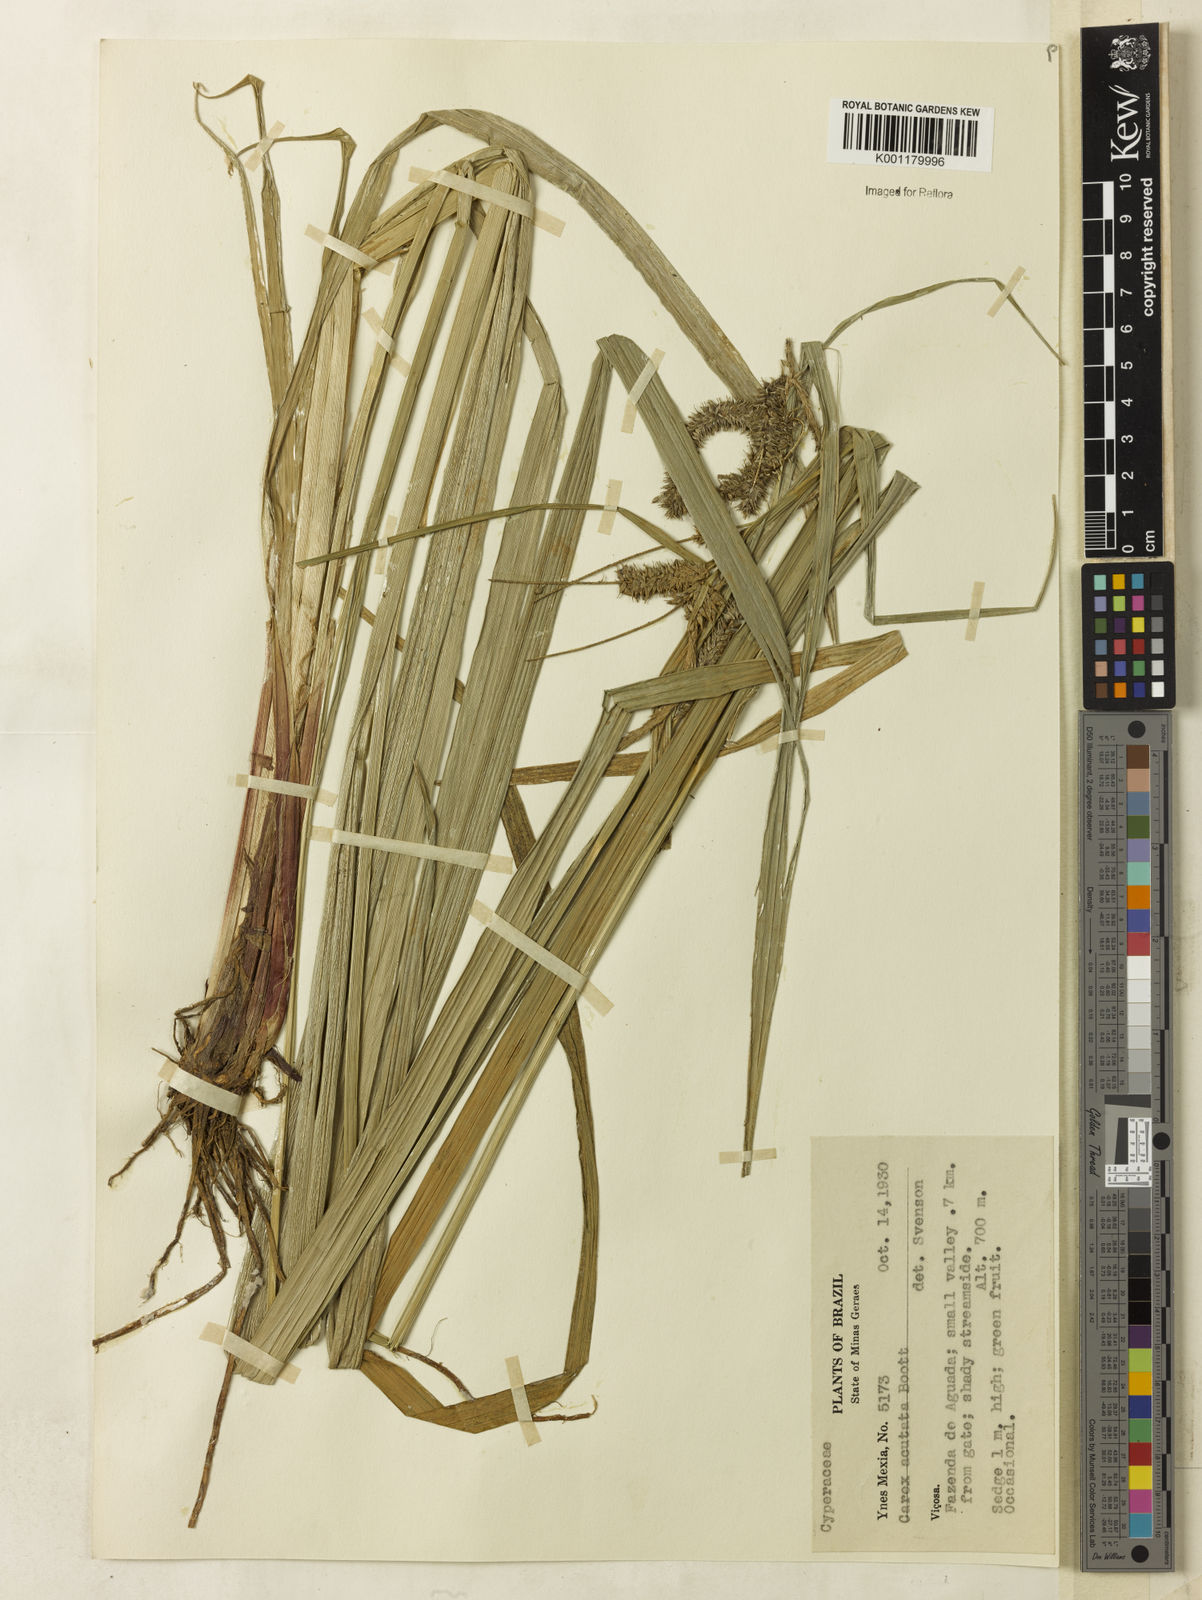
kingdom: Plantae
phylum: Tracheophyta
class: Liliopsida
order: Poales
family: Cyperaceae
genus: Carex
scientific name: Carex polysticha
